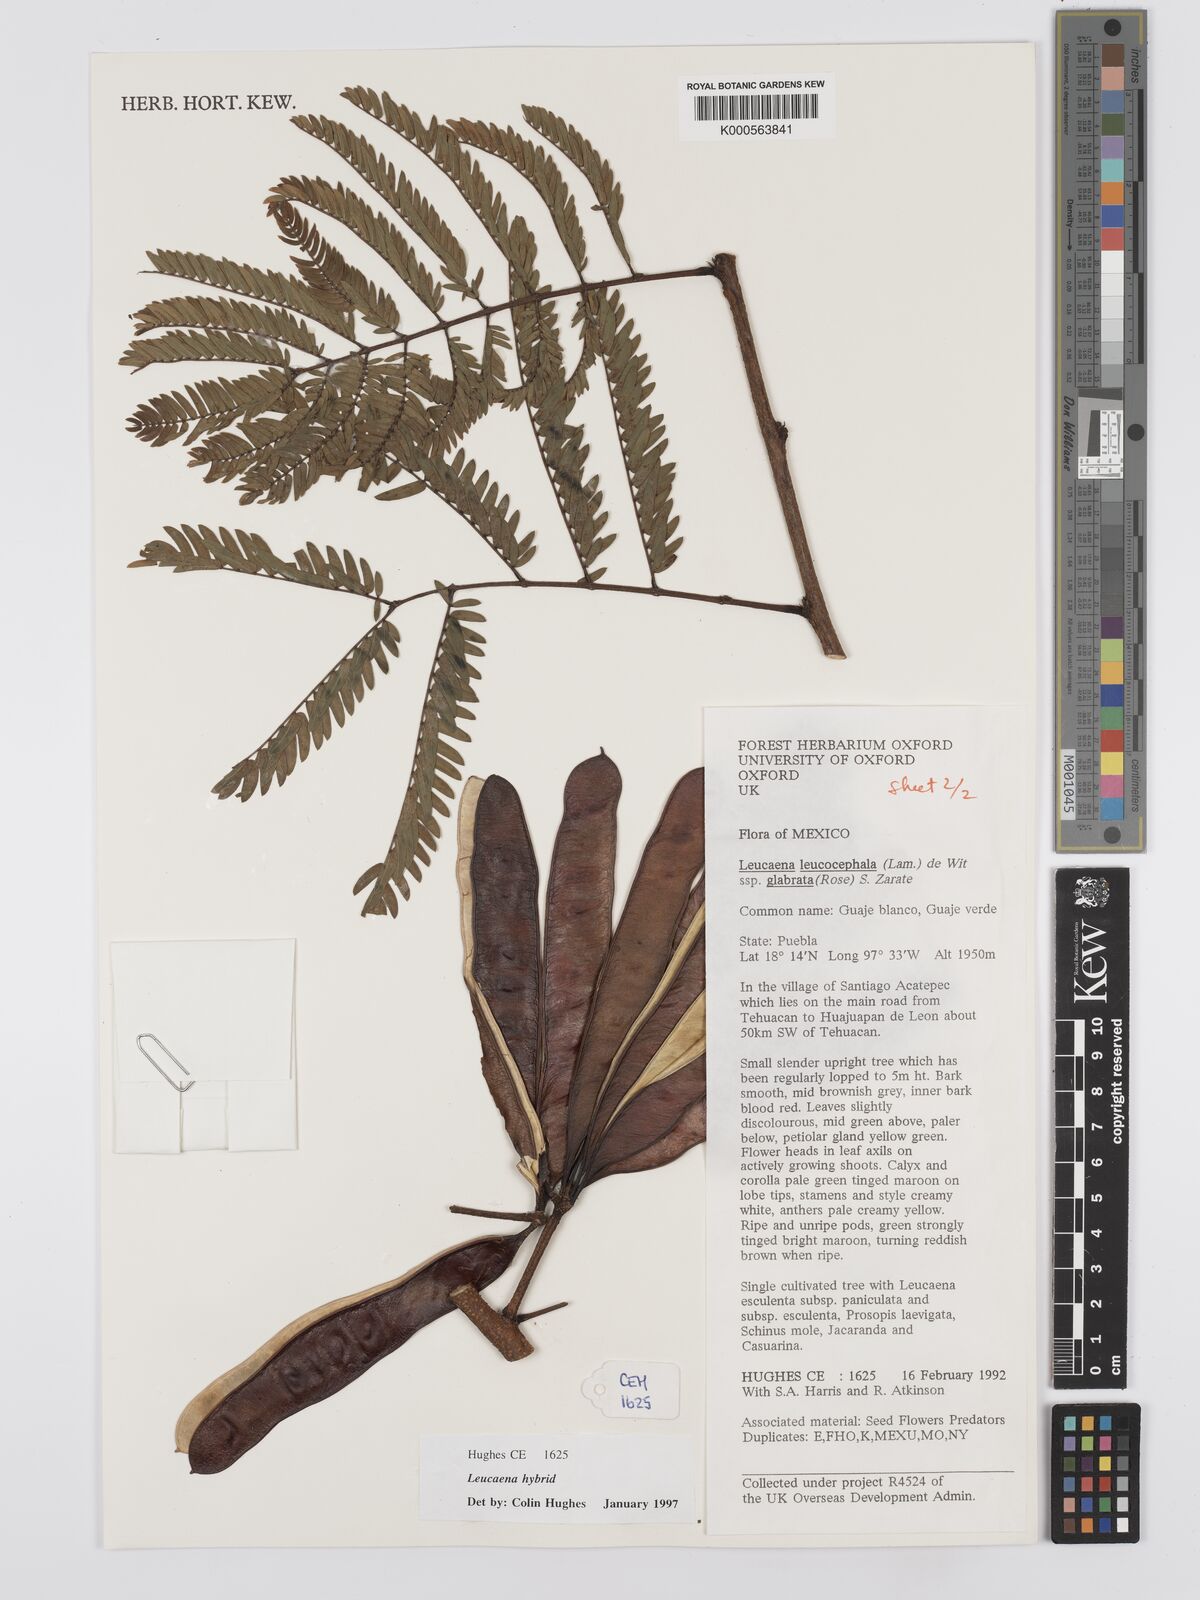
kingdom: Plantae
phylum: Tracheophyta
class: Magnoliopsida
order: Fabales
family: Fabaceae
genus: Leucaena
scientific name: Leucaena
